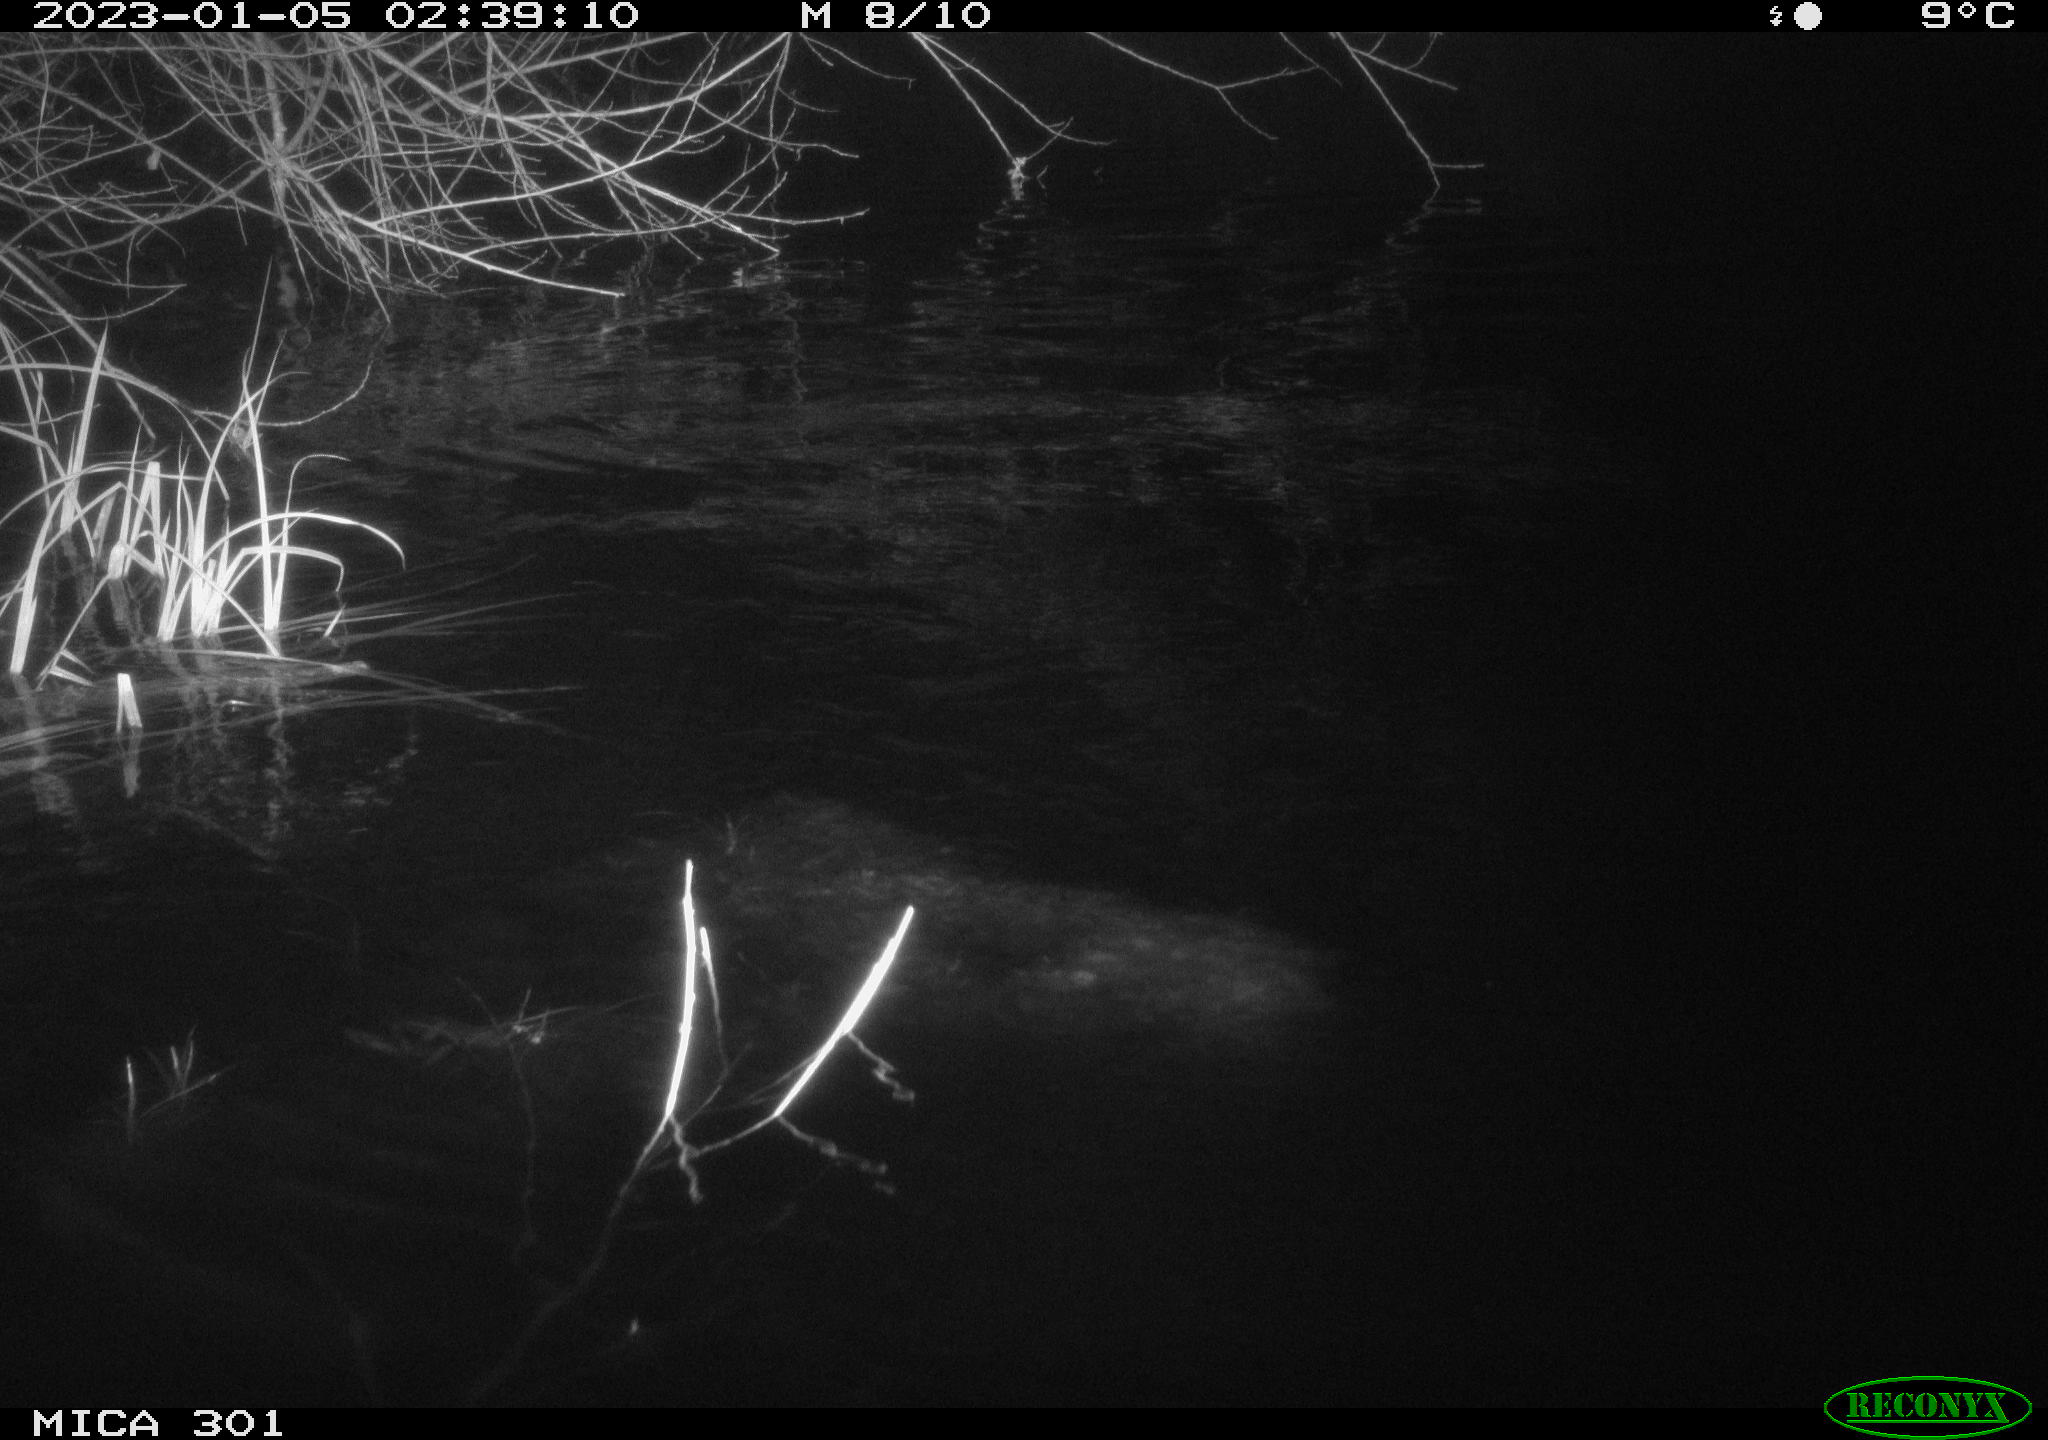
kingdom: Animalia
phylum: Chordata
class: Mammalia
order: Rodentia
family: Castoridae
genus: Castor
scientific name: Castor fiber
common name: Eurasian beaver
